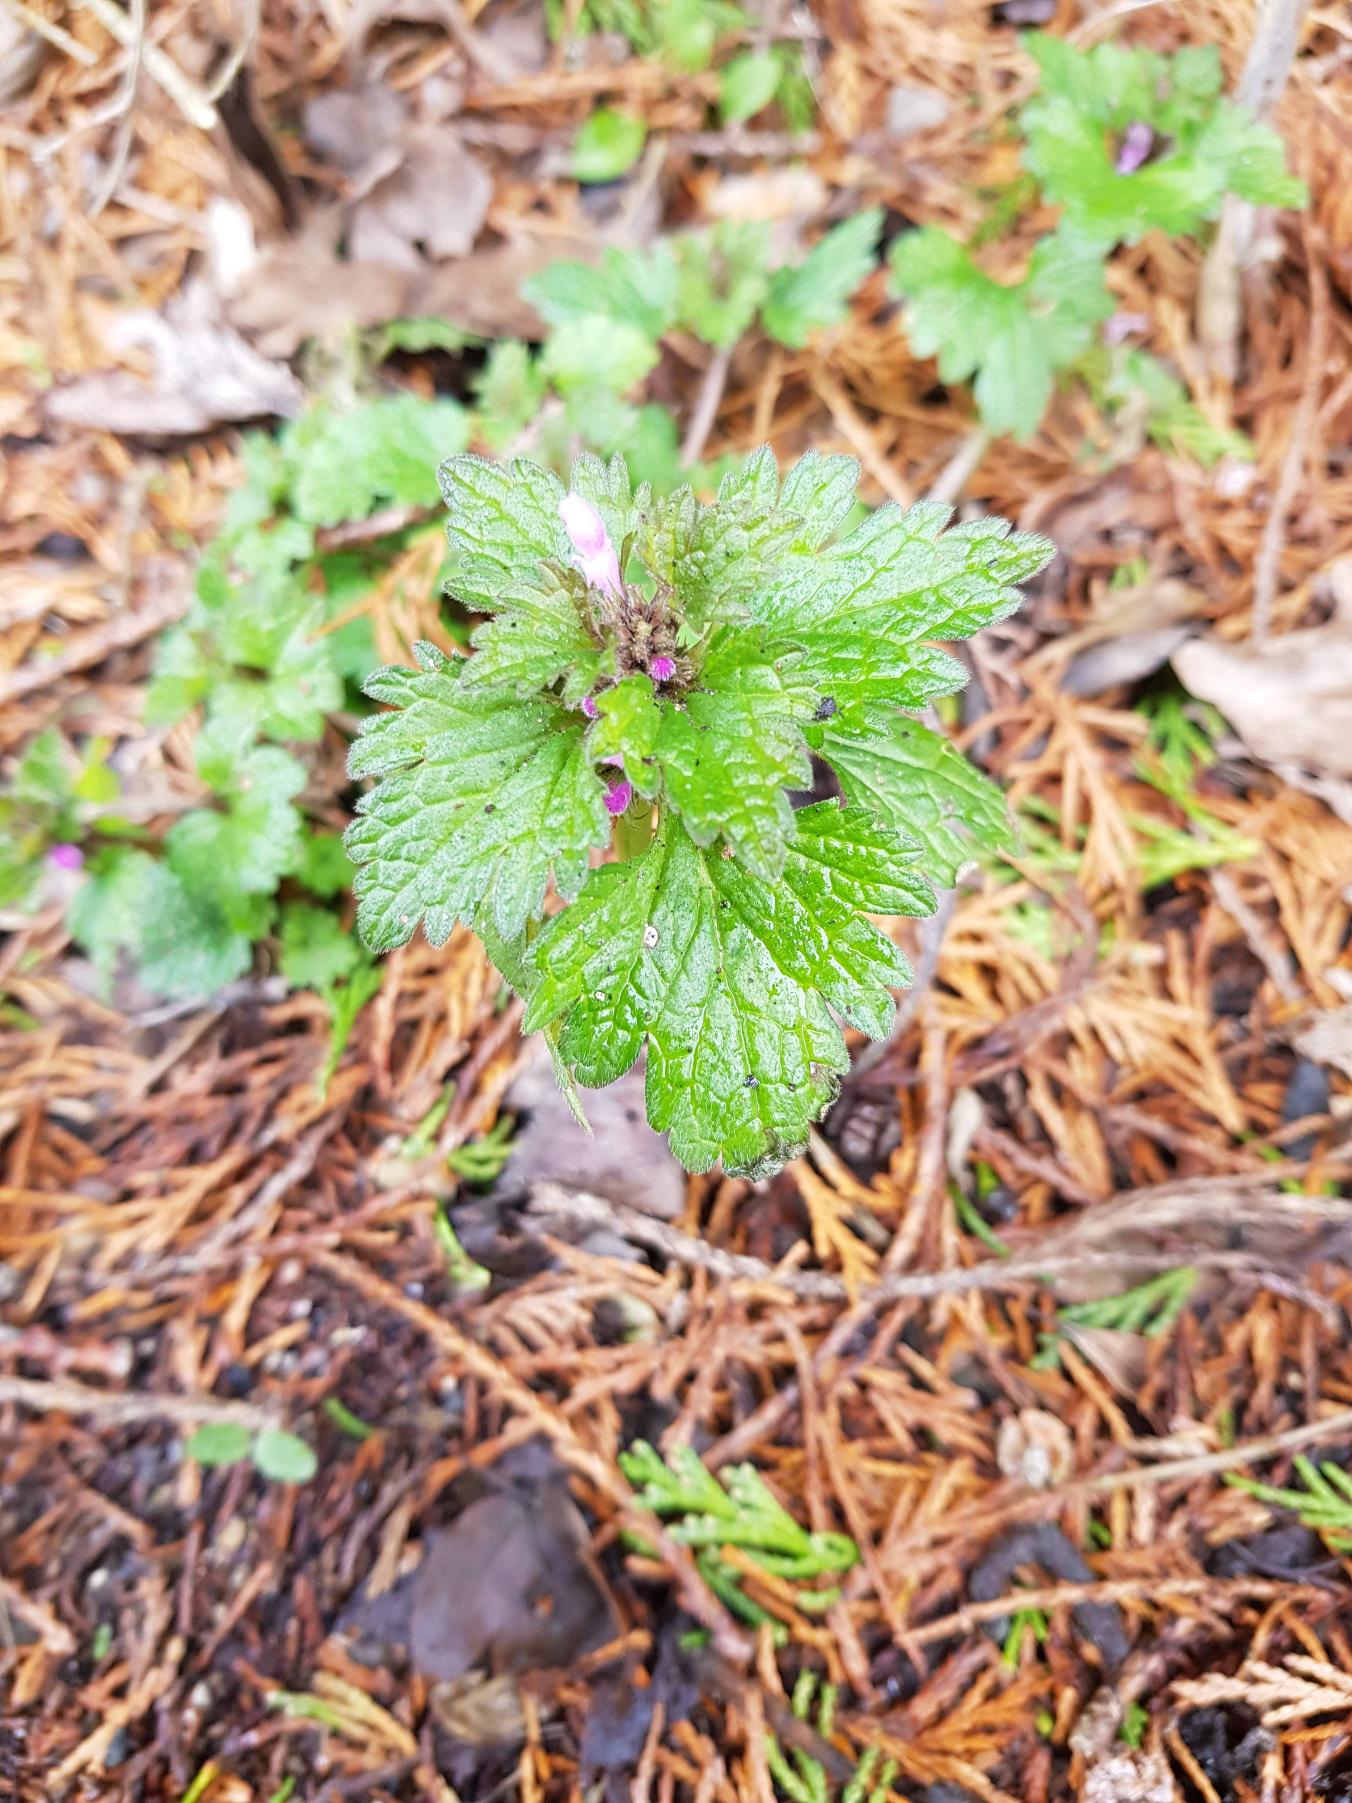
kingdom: Plantae
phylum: Tracheophyta
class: Magnoliopsida
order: Lamiales
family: Lamiaceae
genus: Lamium
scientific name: Lamium hybridum
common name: Fliget tvetand
